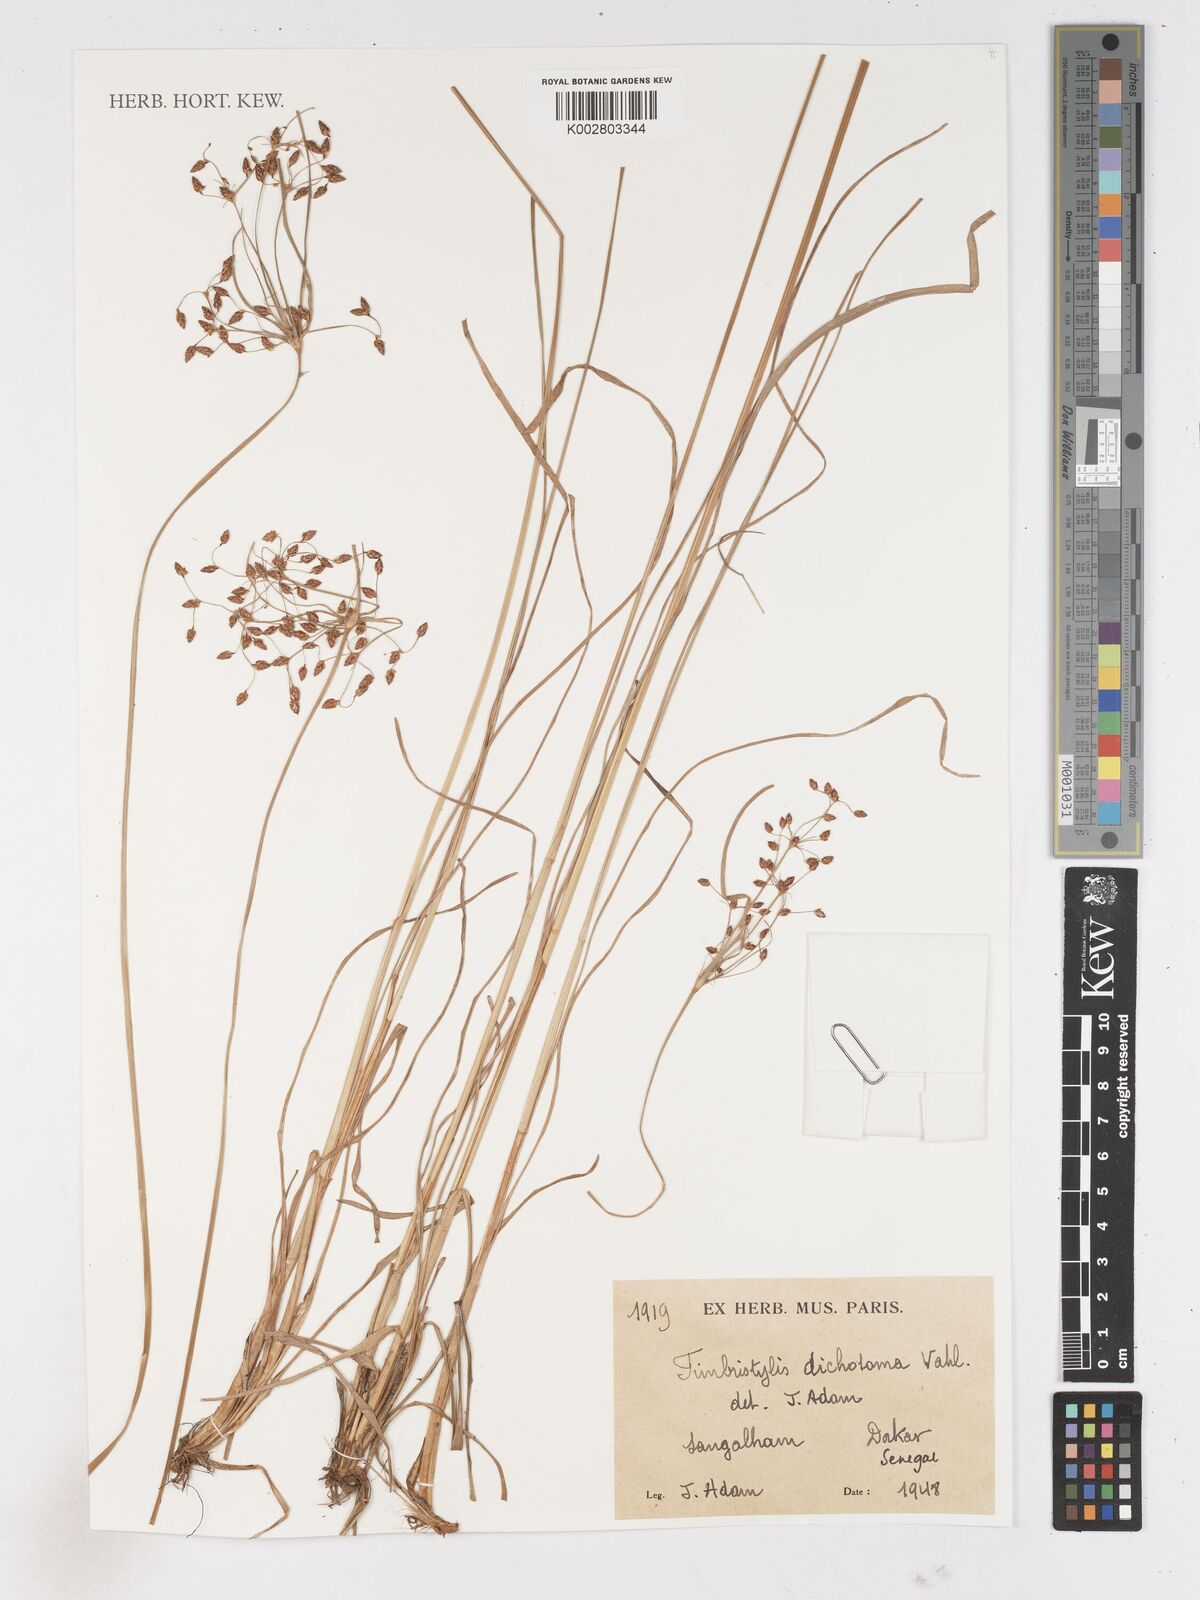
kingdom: Plantae
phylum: Tracheophyta
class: Liliopsida
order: Poales
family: Cyperaceae
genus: Fimbristylis
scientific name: Fimbristylis dichotoma
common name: Forked fimbry
